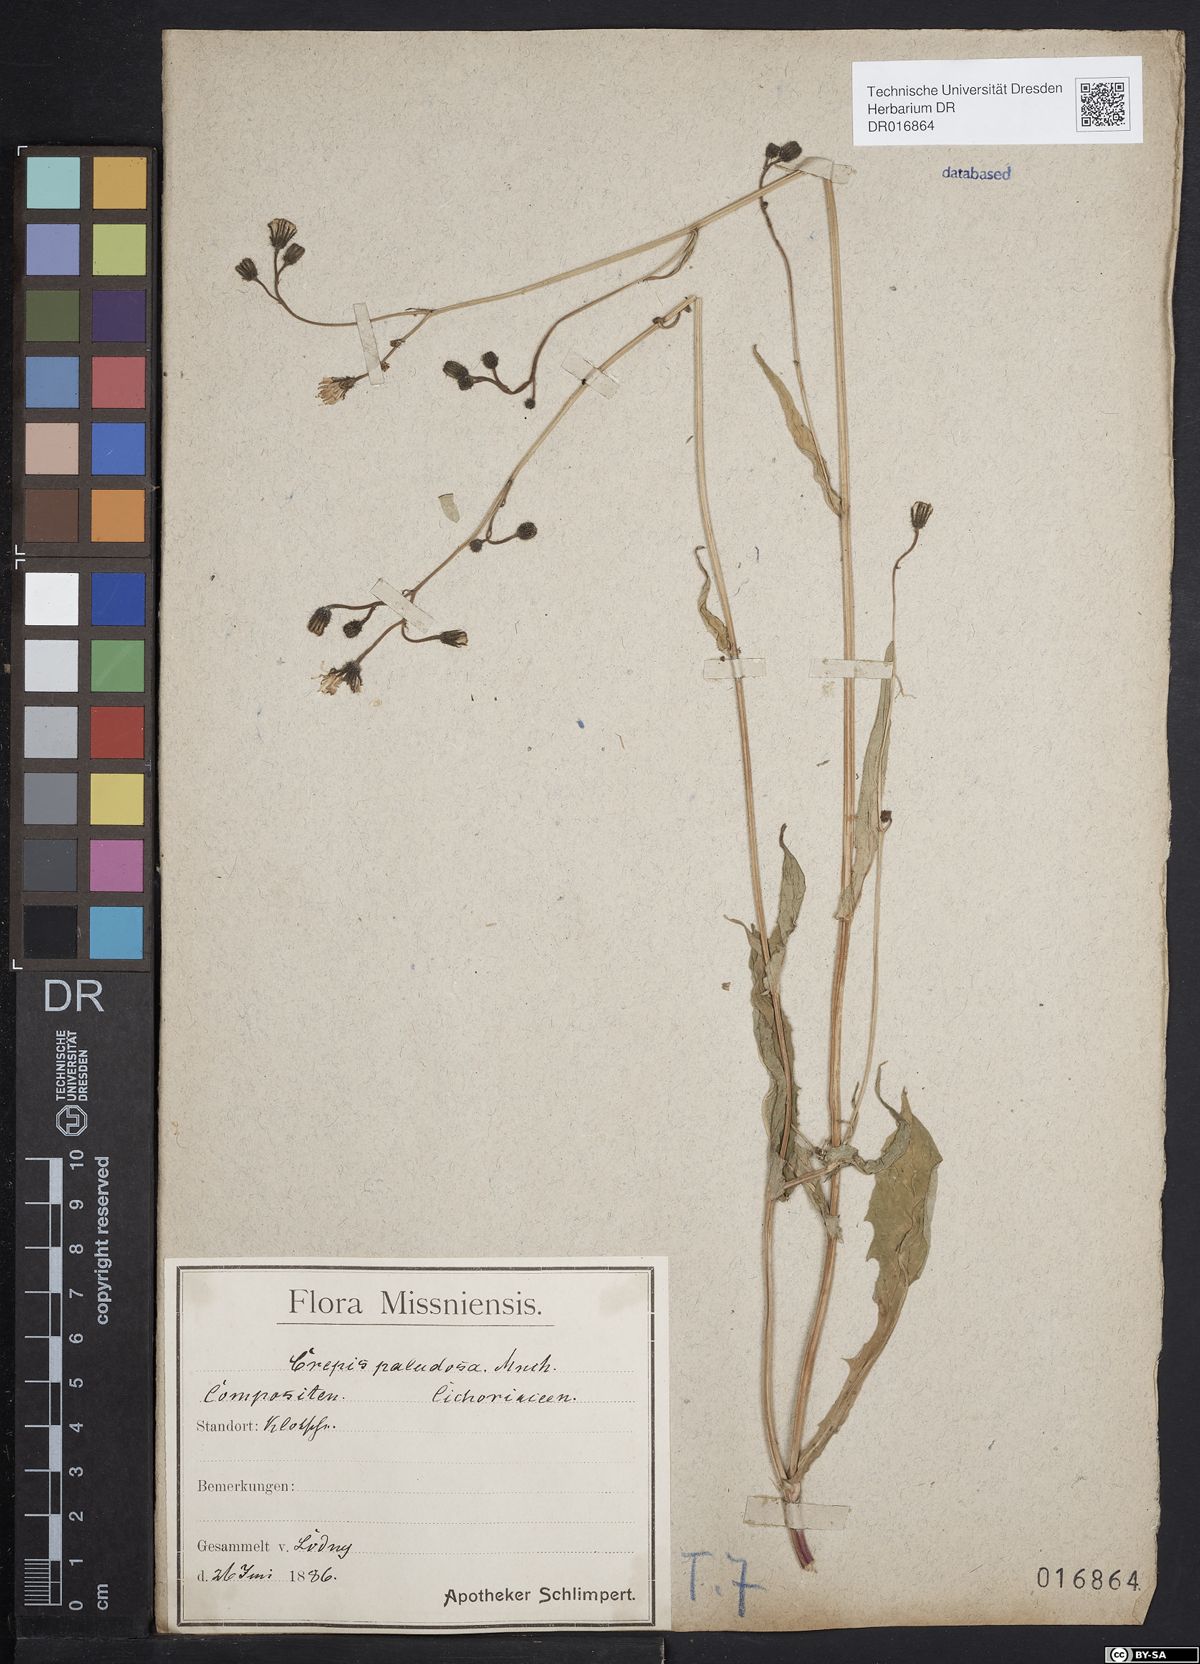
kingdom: Plantae
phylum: Tracheophyta
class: Magnoliopsida
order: Asterales
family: Asteraceae
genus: Crepis
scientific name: Crepis paludosa
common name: Marsh hawk's-beard
